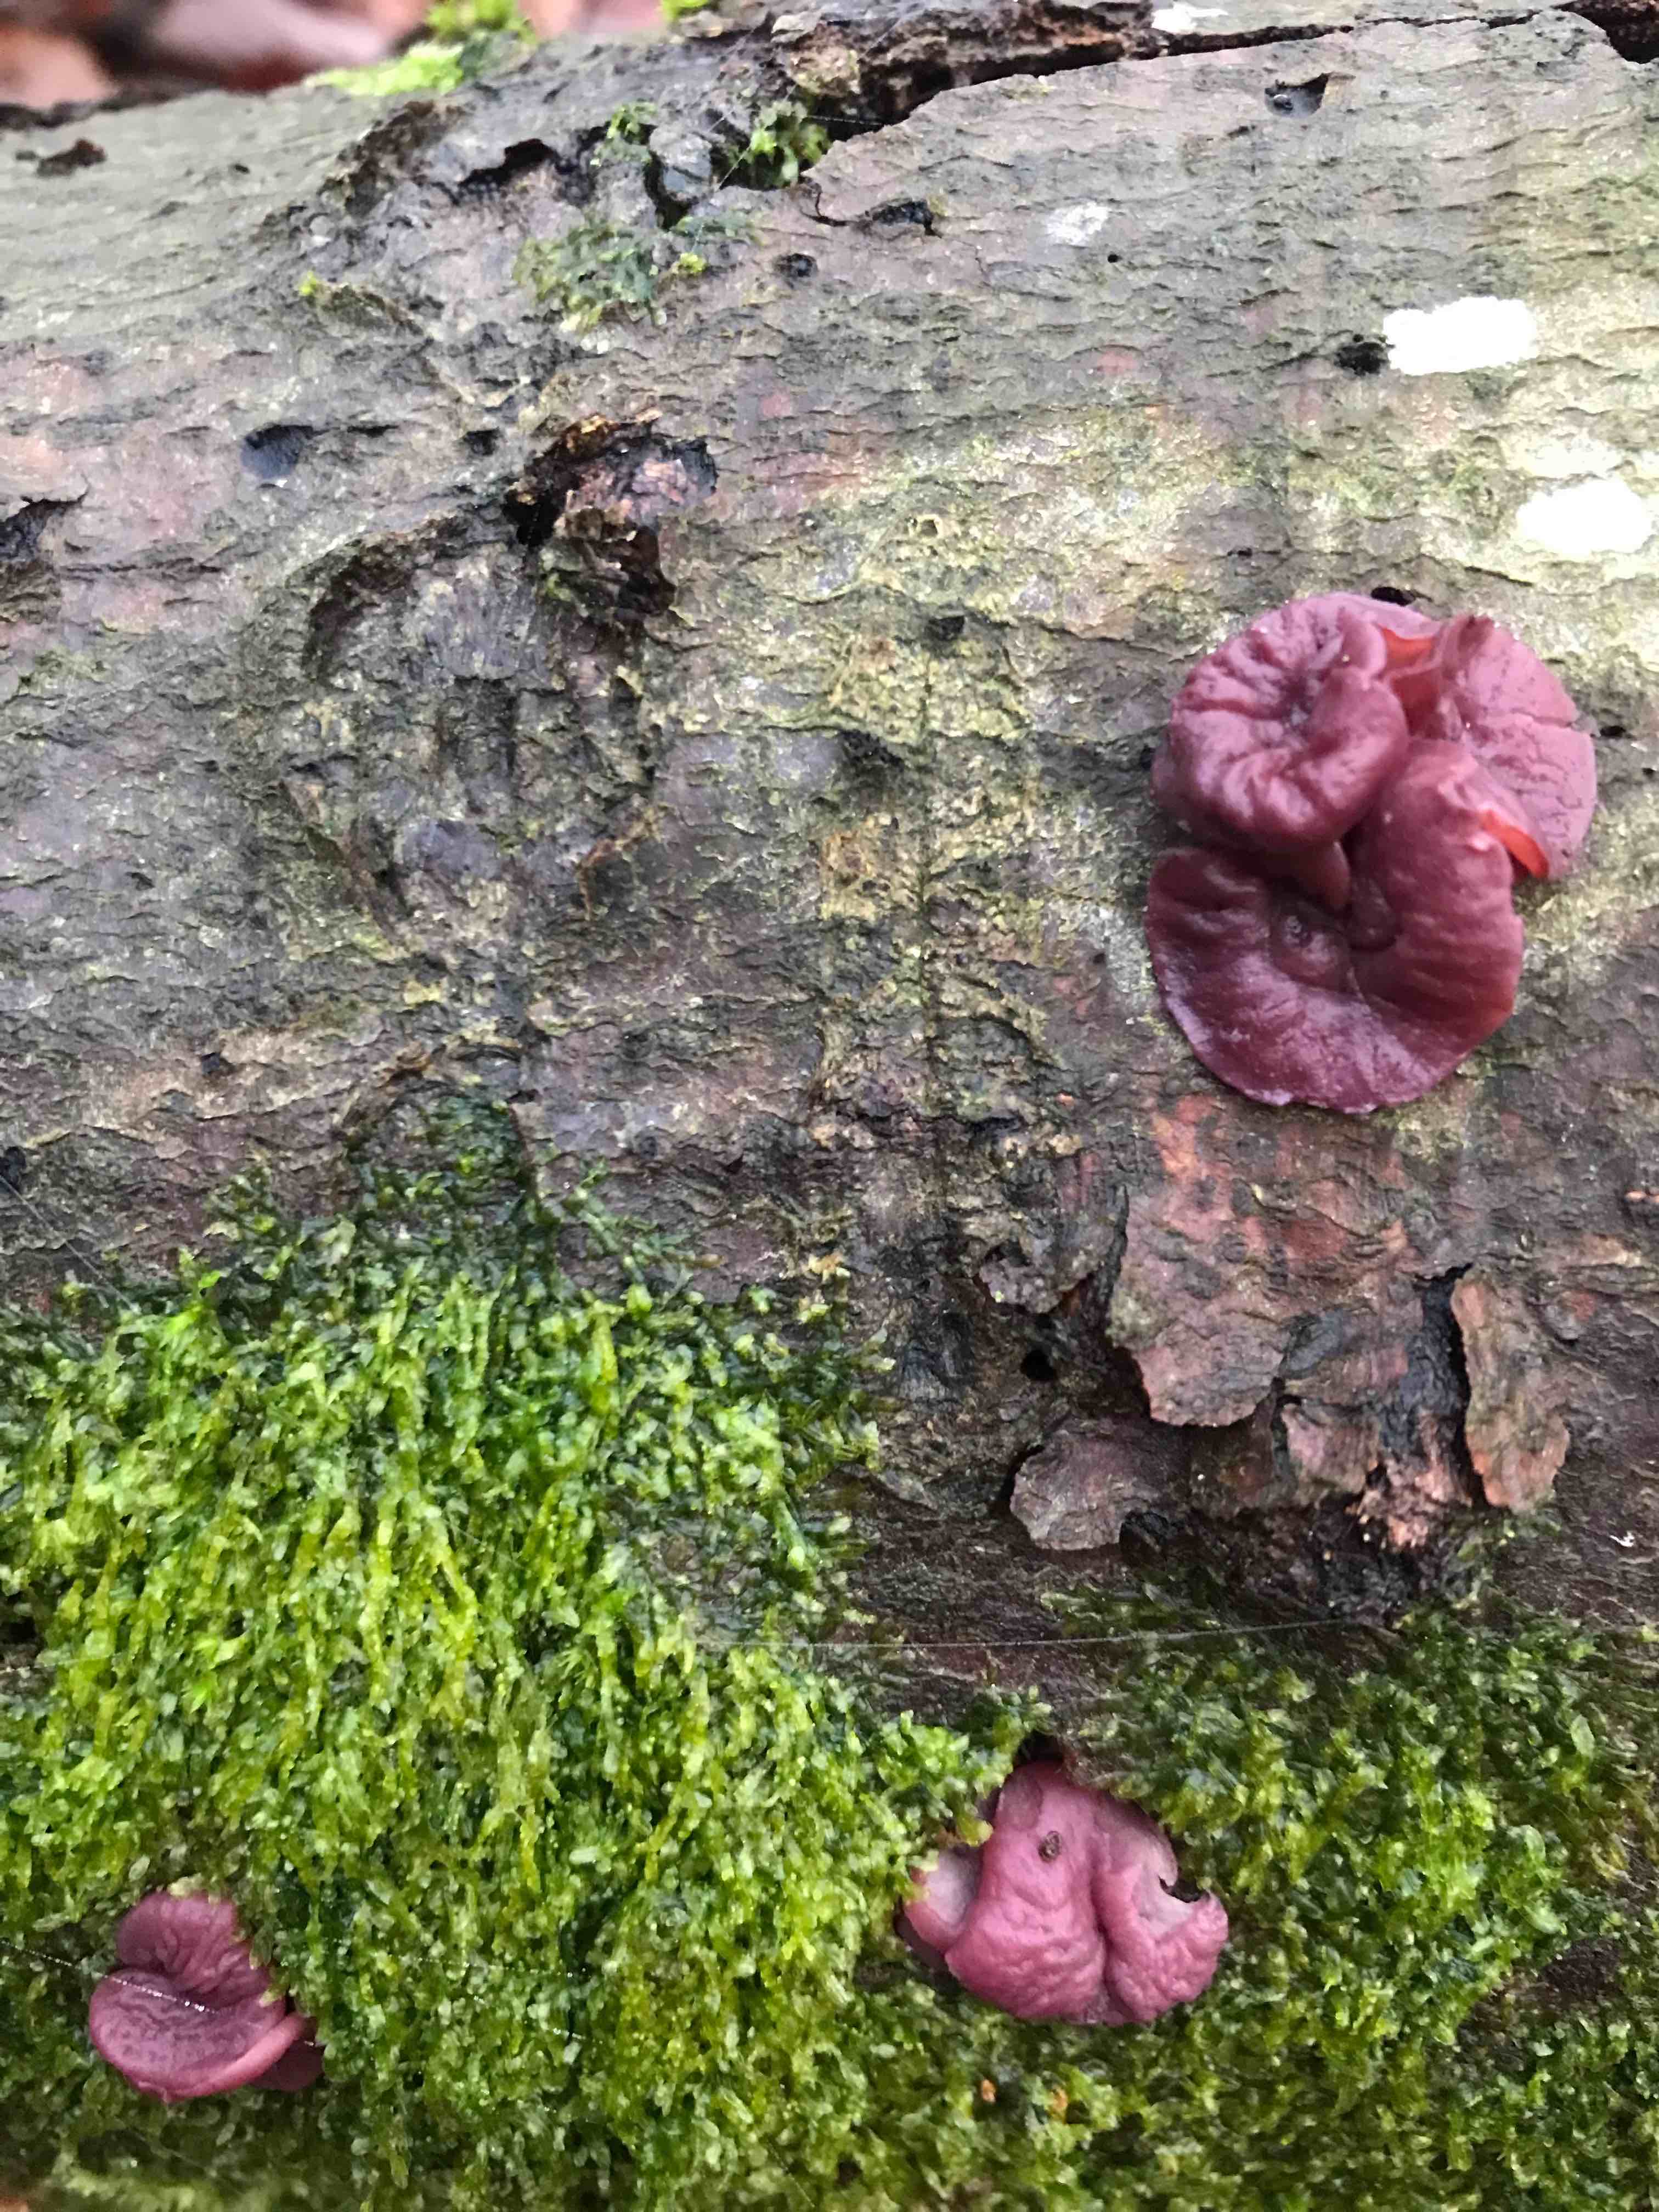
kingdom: Fungi
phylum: Ascomycota
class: Leotiomycetes
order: Helotiales
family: Gelatinodiscaceae
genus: Ascocoryne
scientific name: Ascocoryne
